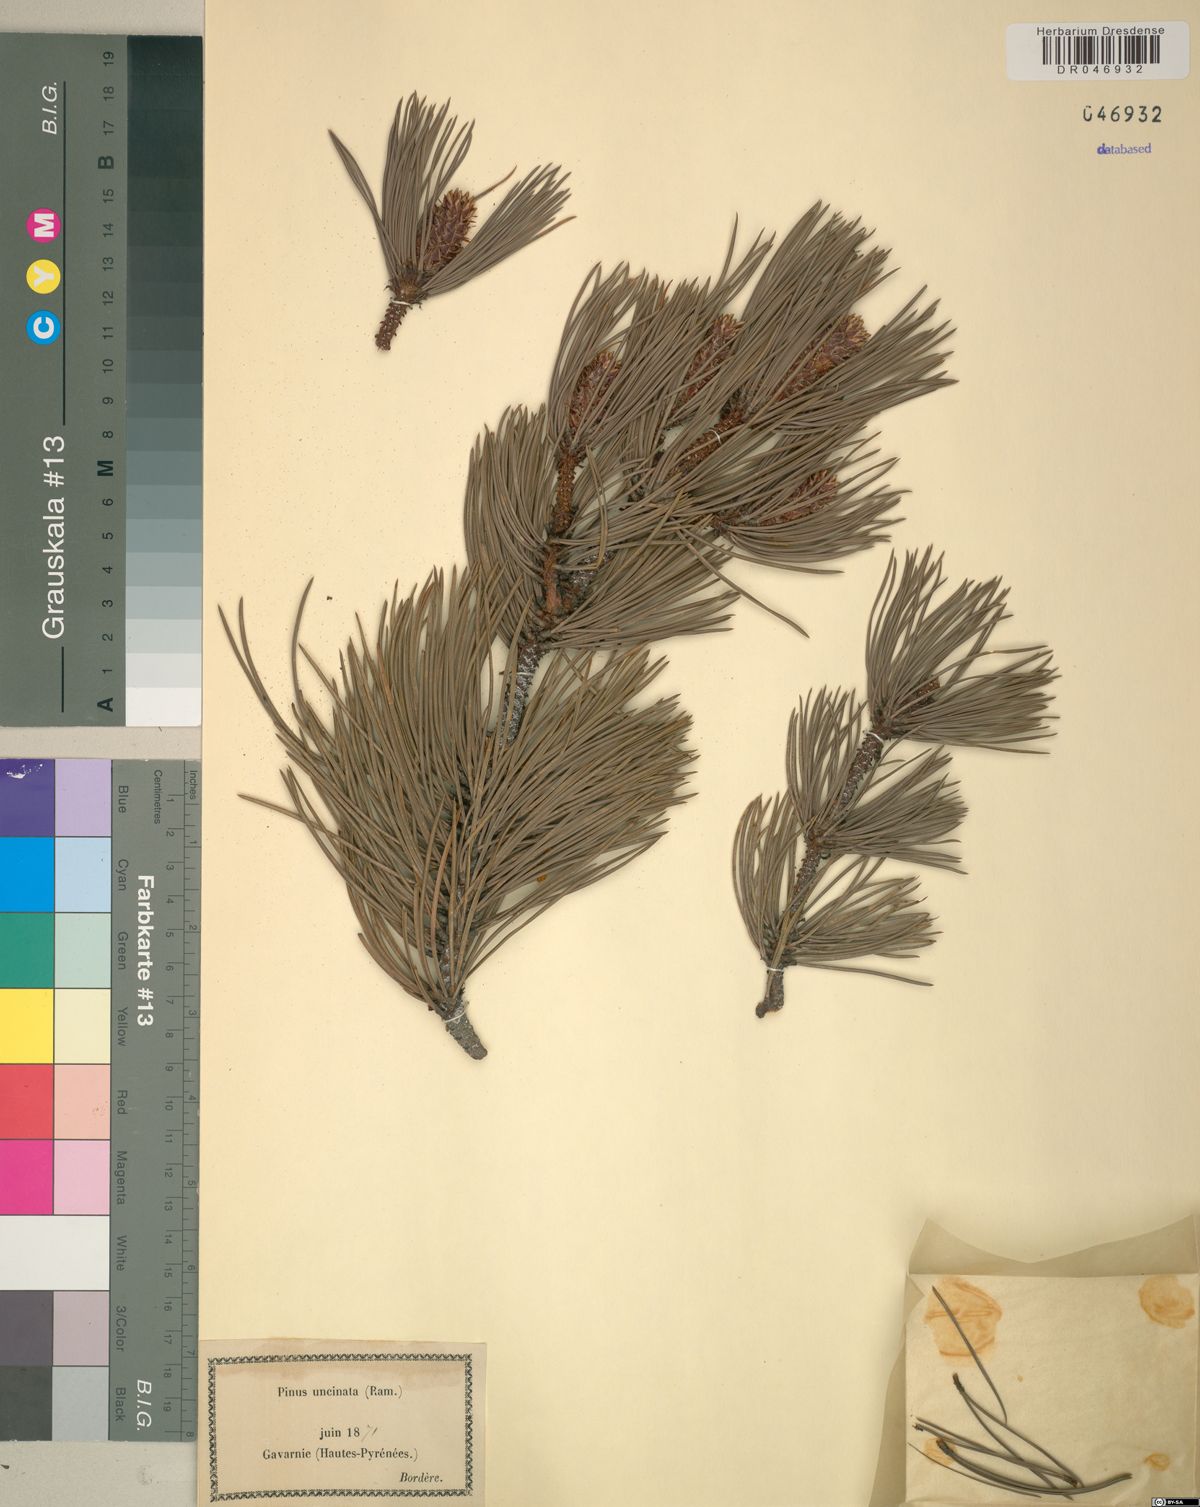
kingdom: Plantae
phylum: Tracheophyta
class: Pinopsida
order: Pinales
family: Pinaceae
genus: Pinus
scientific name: Pinus uncinata
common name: Mountain pine
